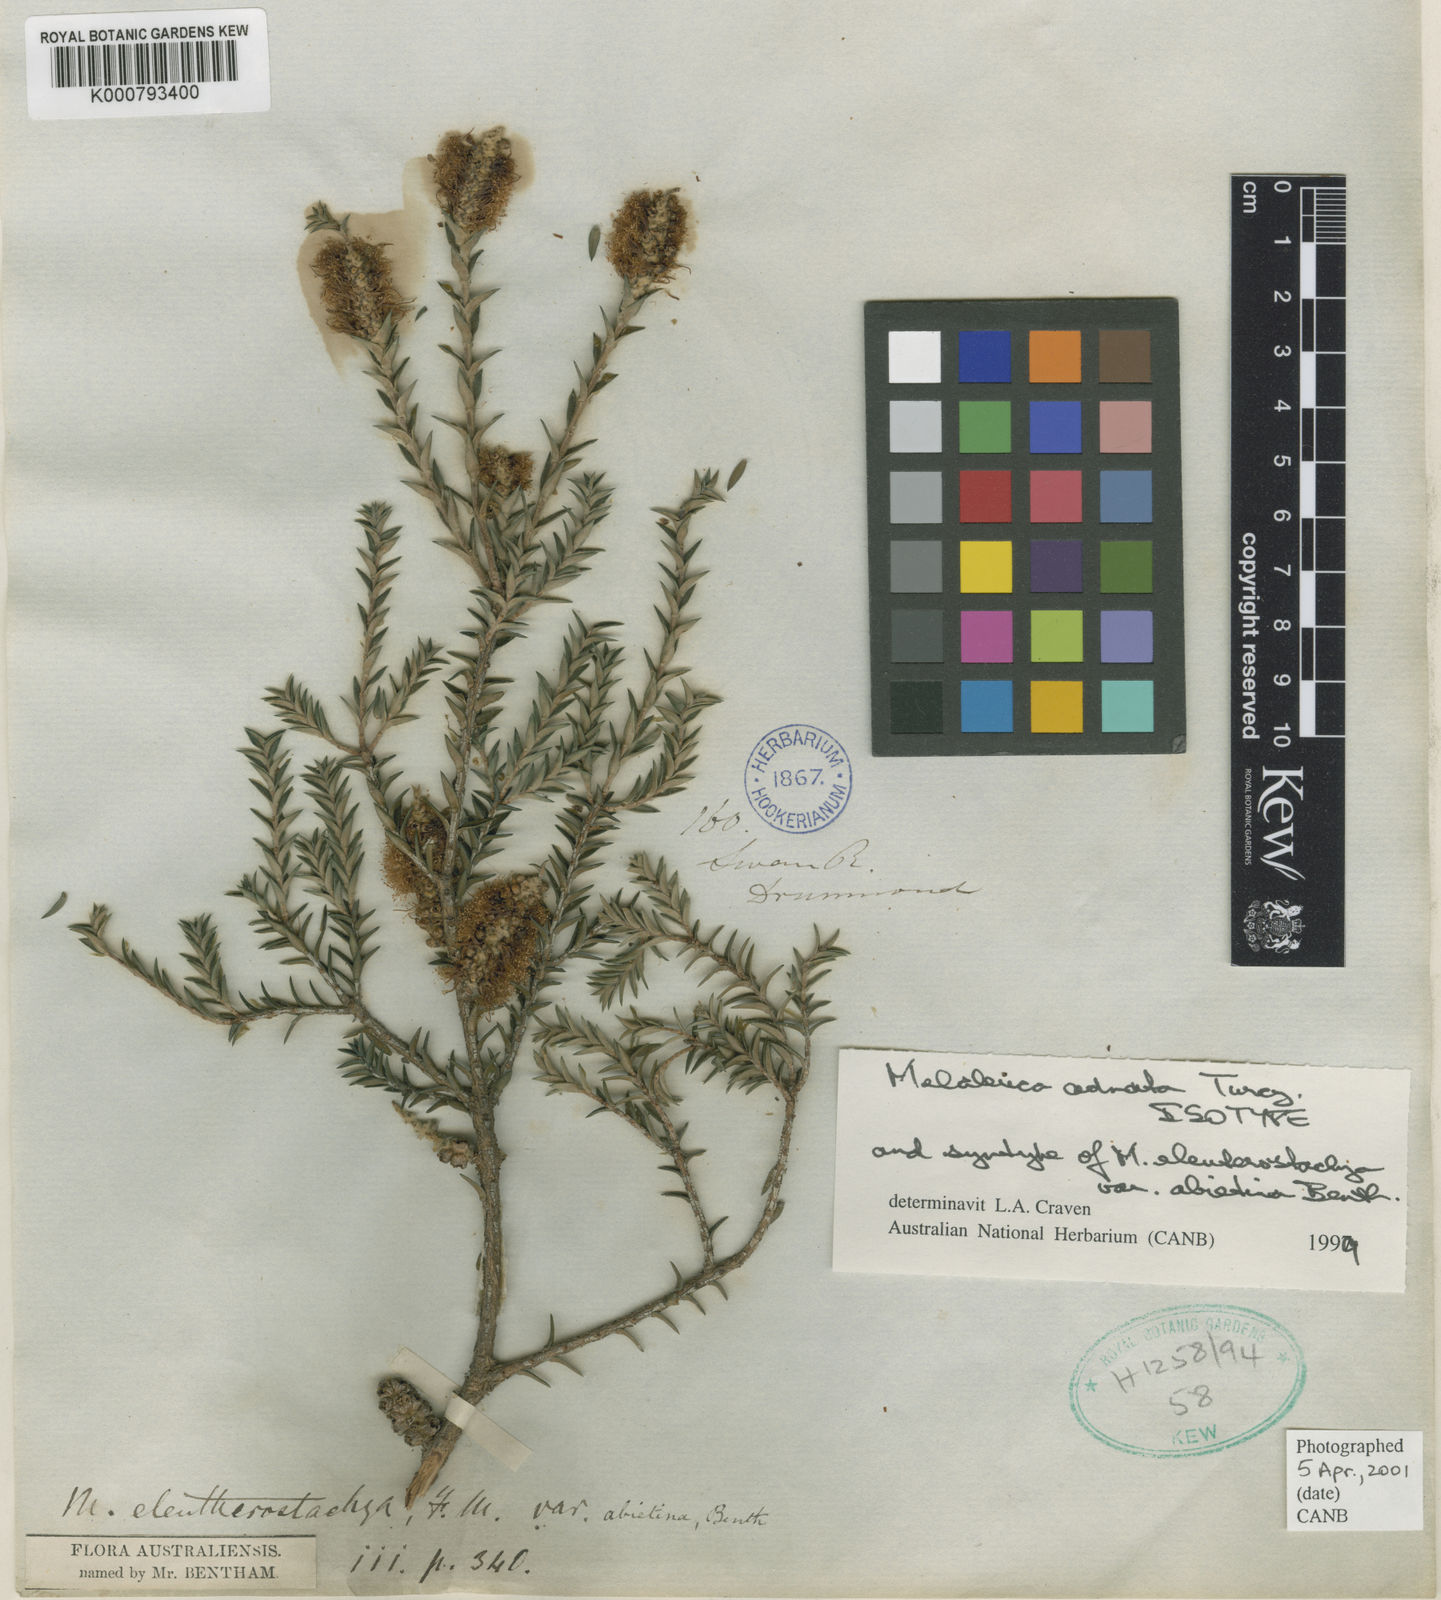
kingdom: Plantae
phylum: Tracheophyta
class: Magnoliopsida
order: Myrtales
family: Myrtaceae
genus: Melaleuca
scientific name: Melaleuca adnata
